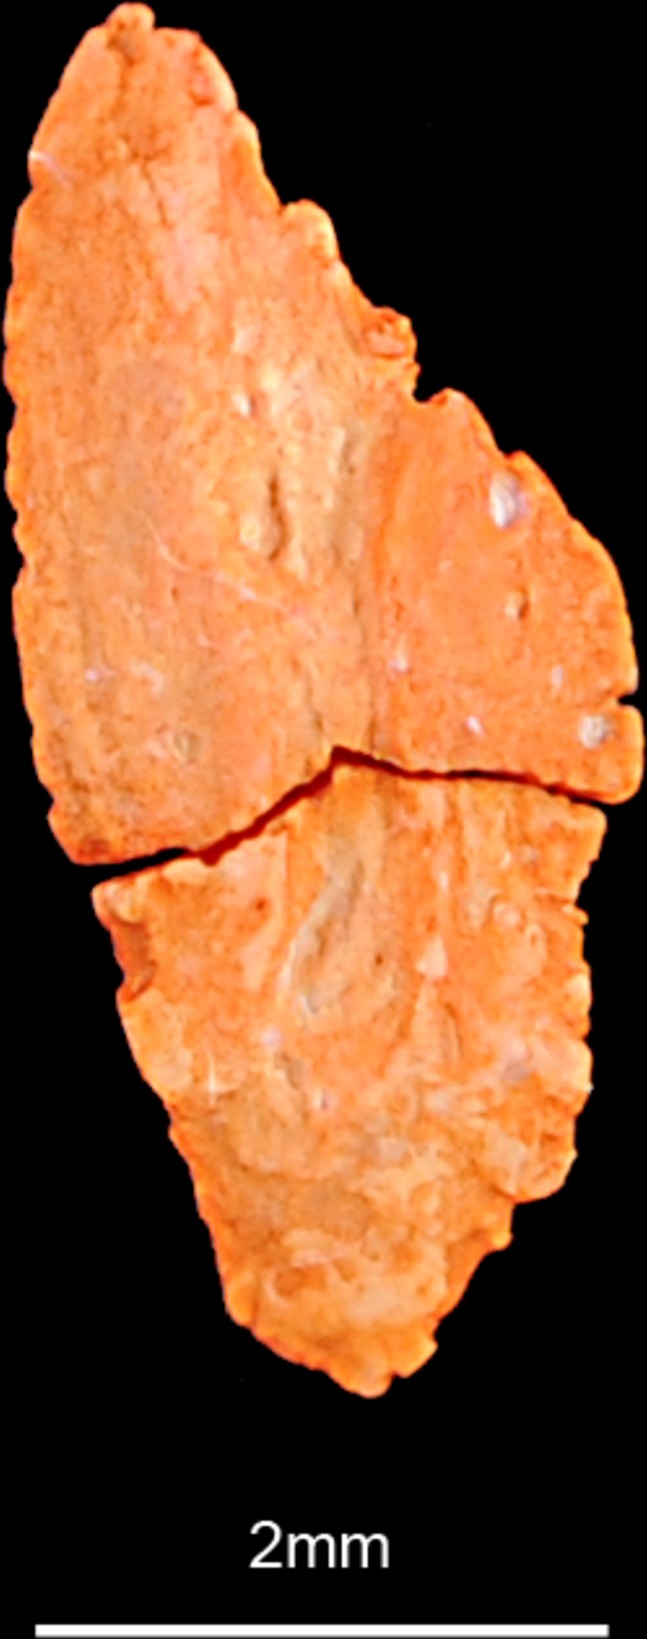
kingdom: Animalia
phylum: Chordata
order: Scorpaeniformes
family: Scorpaenidae
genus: Scorpaena
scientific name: Scorpaena scrofa
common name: Red scorpionfish
